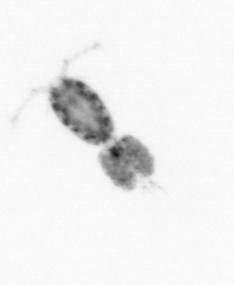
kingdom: Animalia
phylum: Arthropoda
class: Copepoda
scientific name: Copepoda
